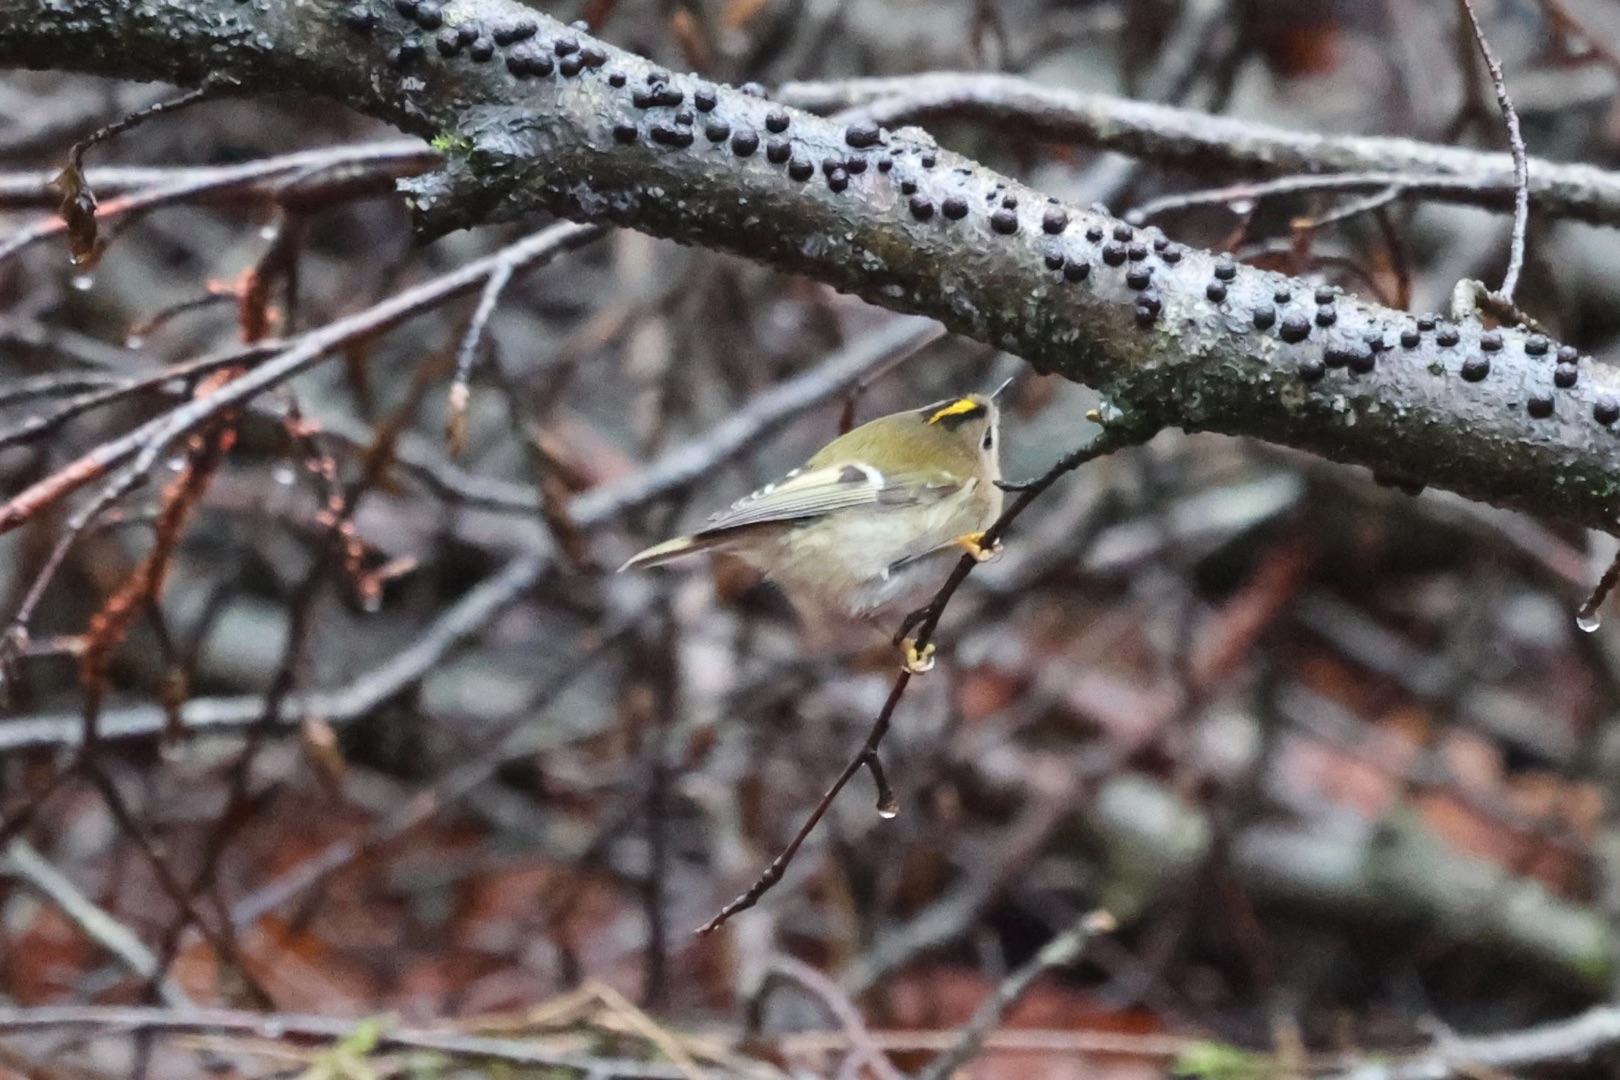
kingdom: Animalia
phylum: Chordata
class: Aves
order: Passeriformes
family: Regulidae
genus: Regulus
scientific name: Regulus regulus
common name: Fuglekonge
